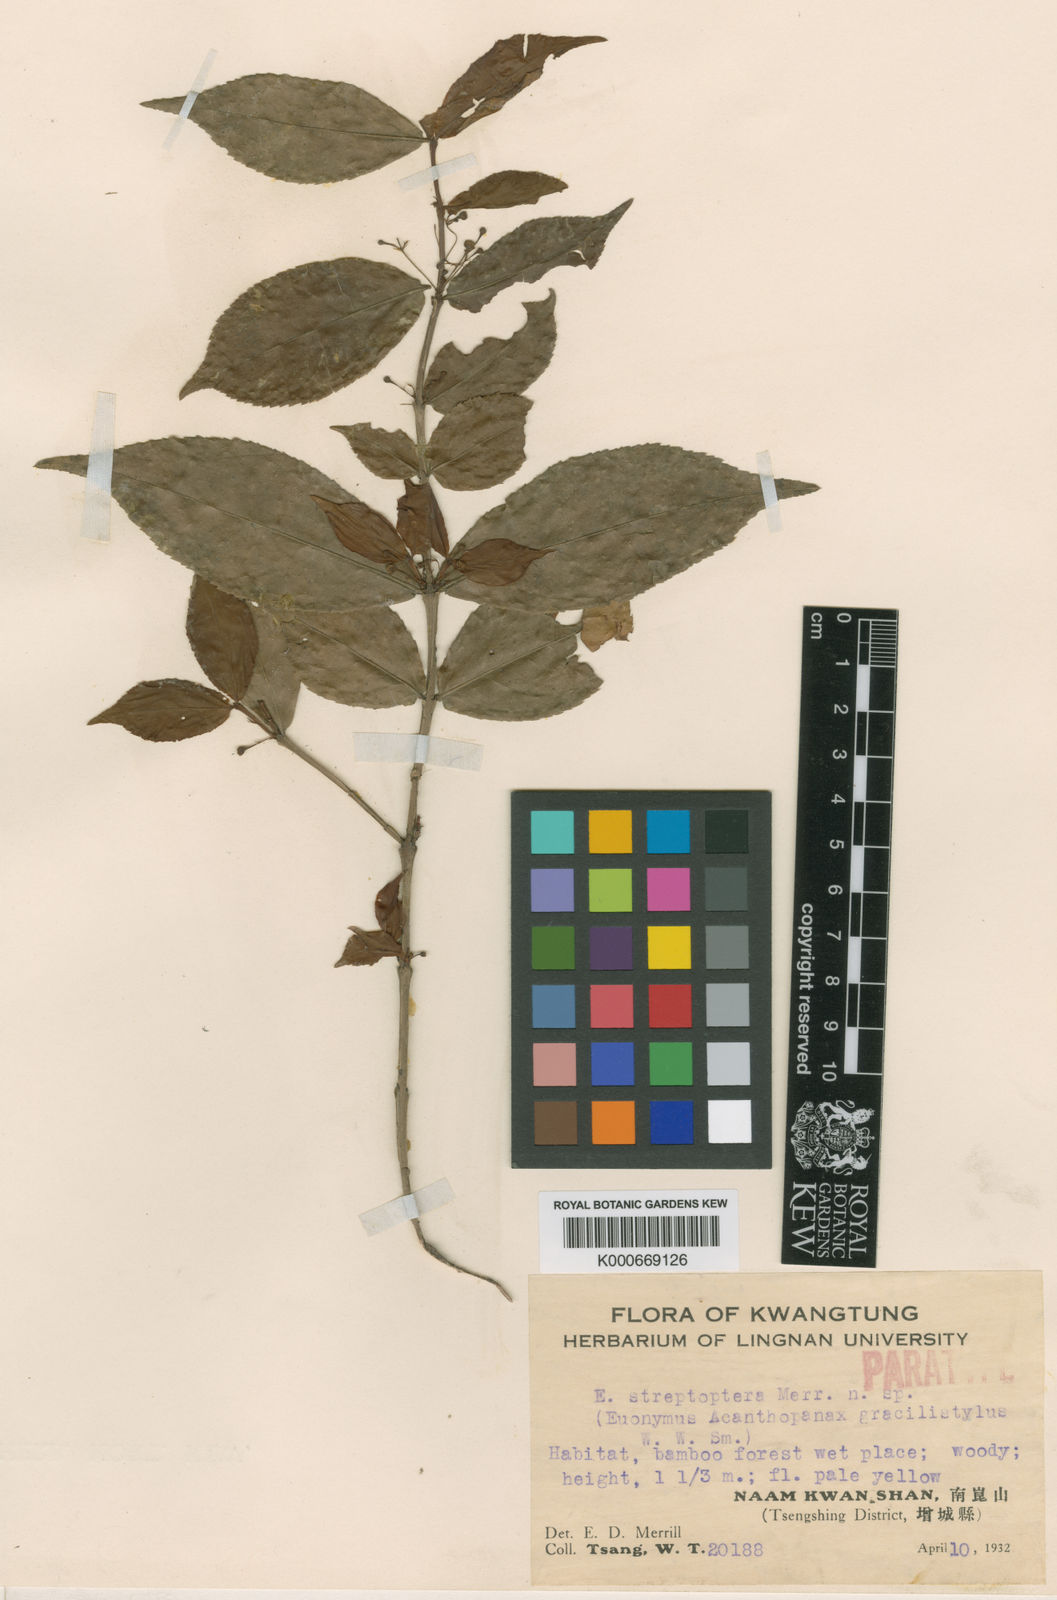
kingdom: Plantae
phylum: Tracheophyta
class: Magnoliopsida
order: Celastrales
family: Celastraceae
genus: Euonymus
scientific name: Euonymus centidens
